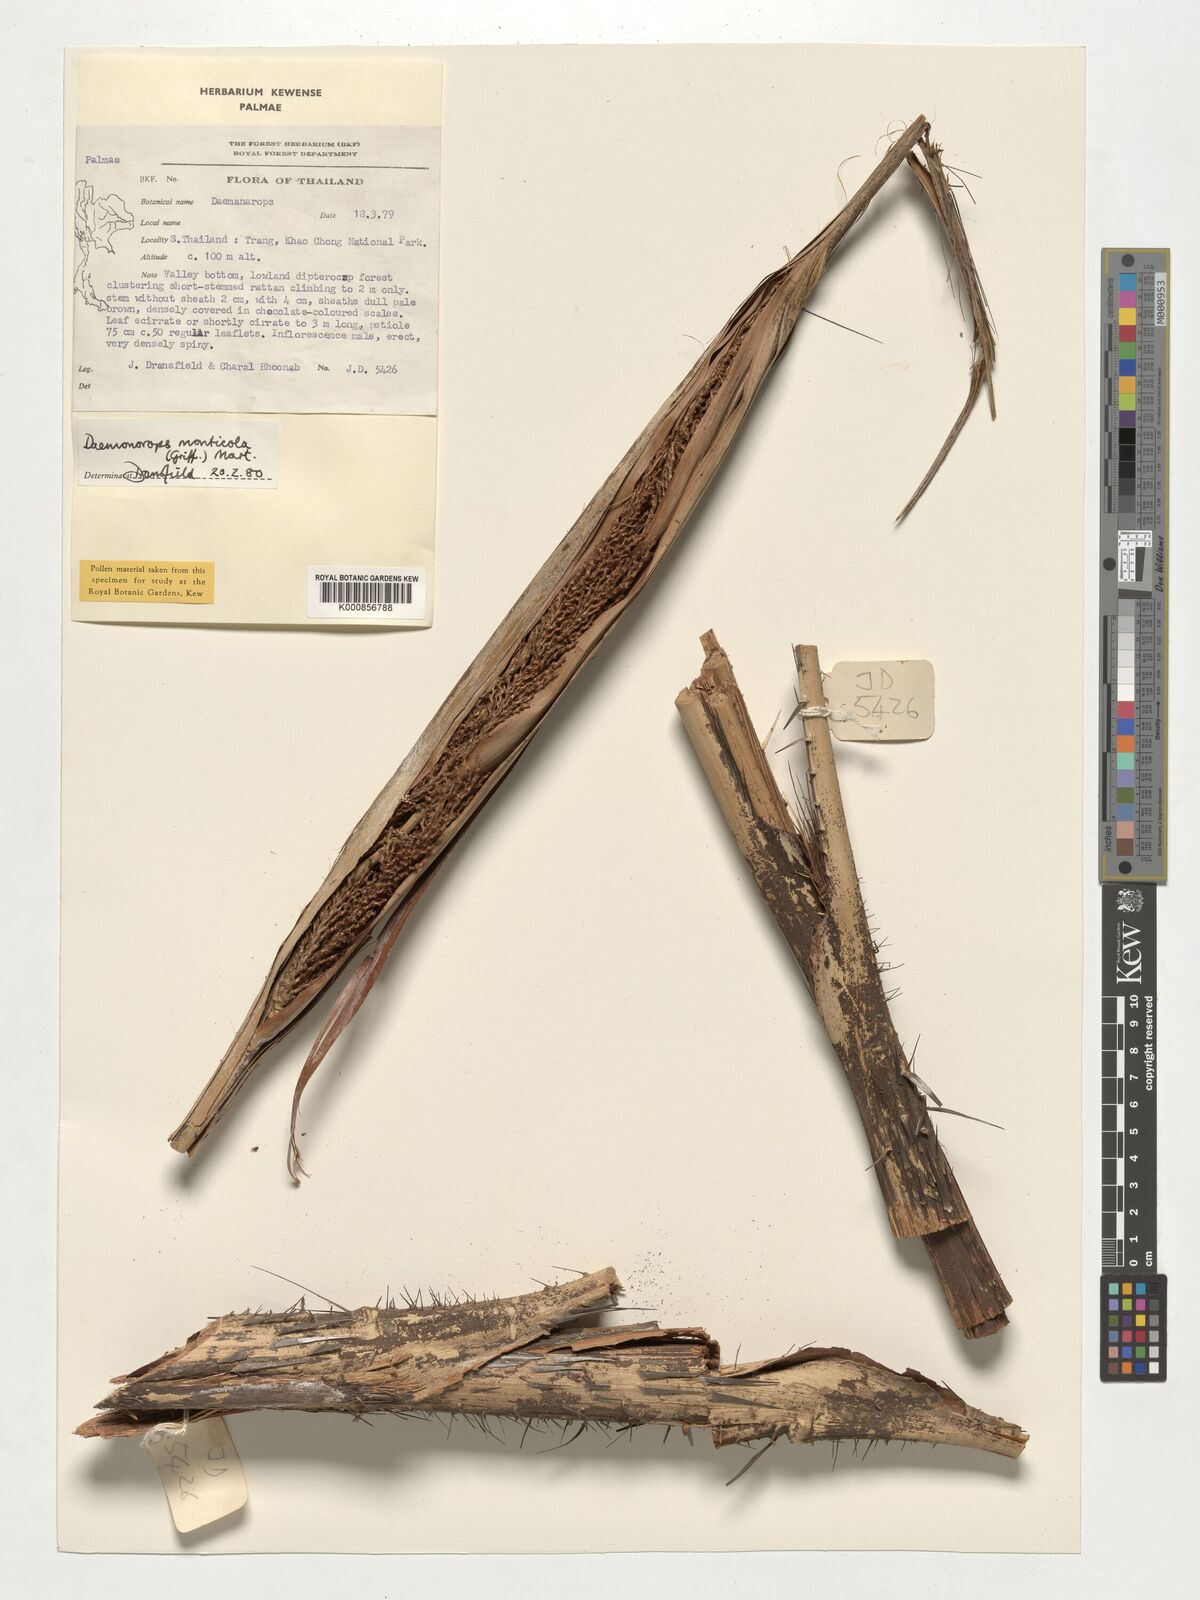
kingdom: Plantae
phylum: Tracheophyta
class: Liliopsida
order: Arecales
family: Arecaceae
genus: Calamus
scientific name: Calamus melanochaetes
